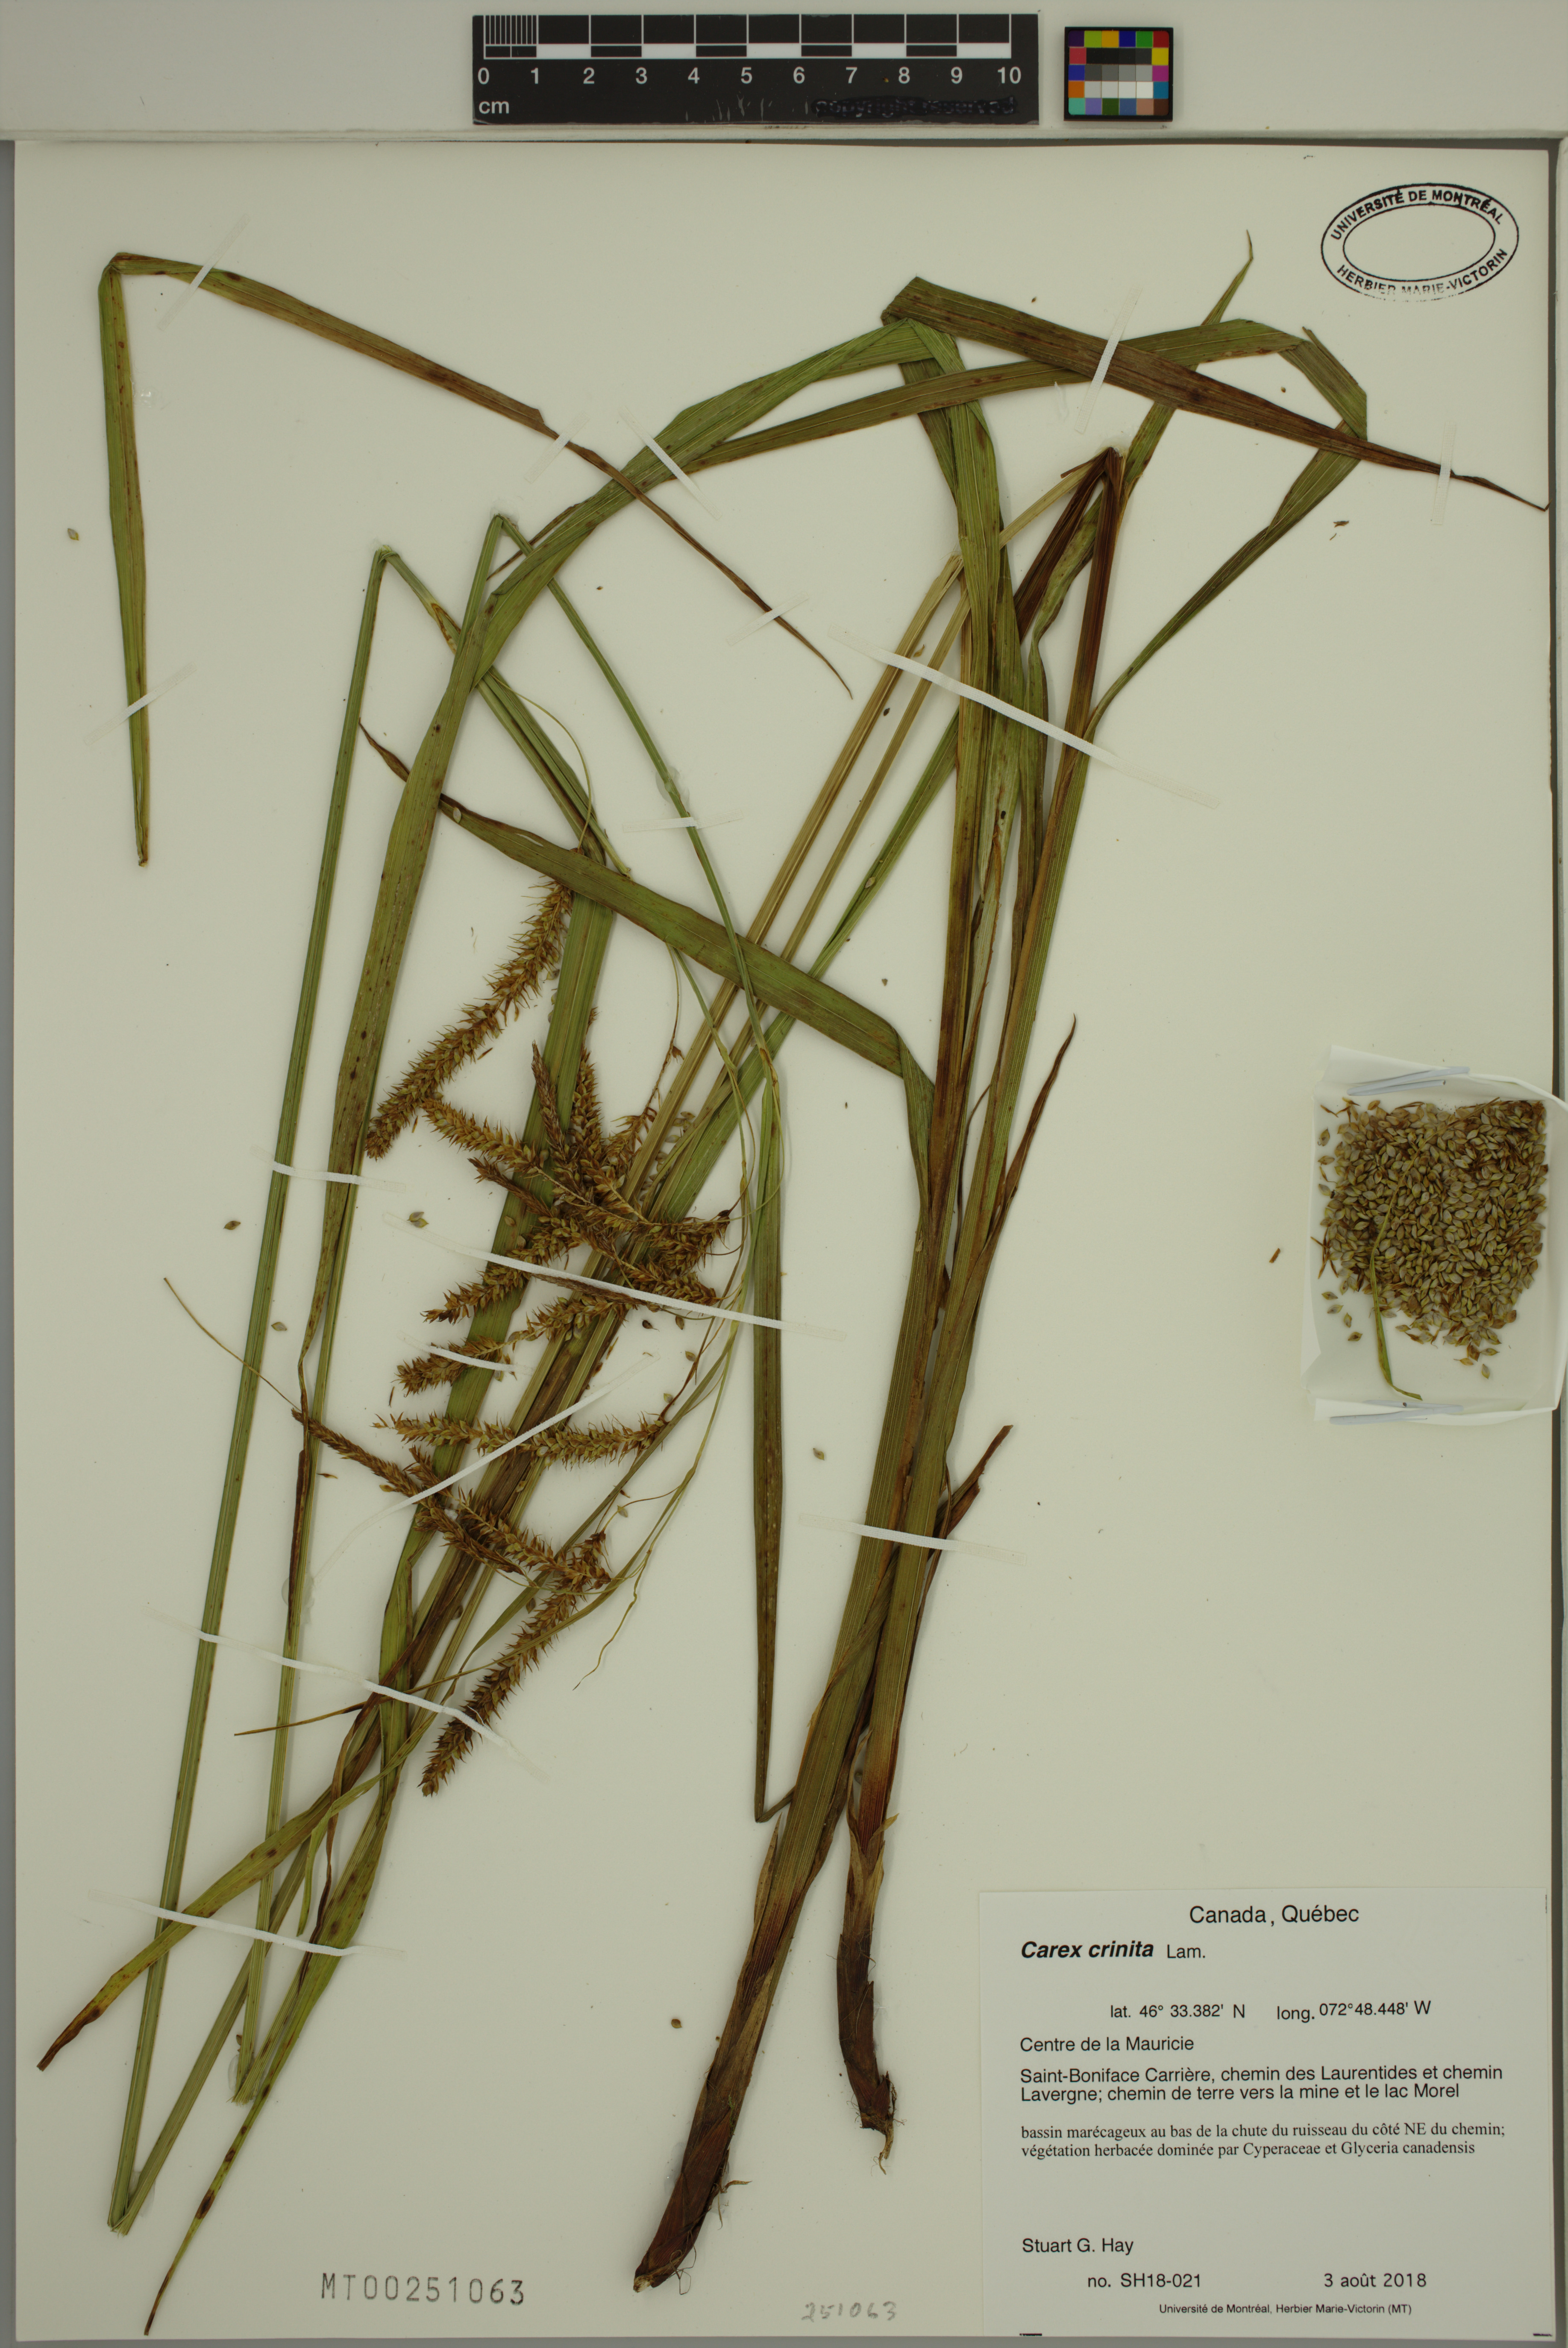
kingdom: Plantae
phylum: Tracheophyta
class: Liliopsida
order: Poales
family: Cyperaceae
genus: Carex
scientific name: Carex crinita
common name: Fringed sedge
